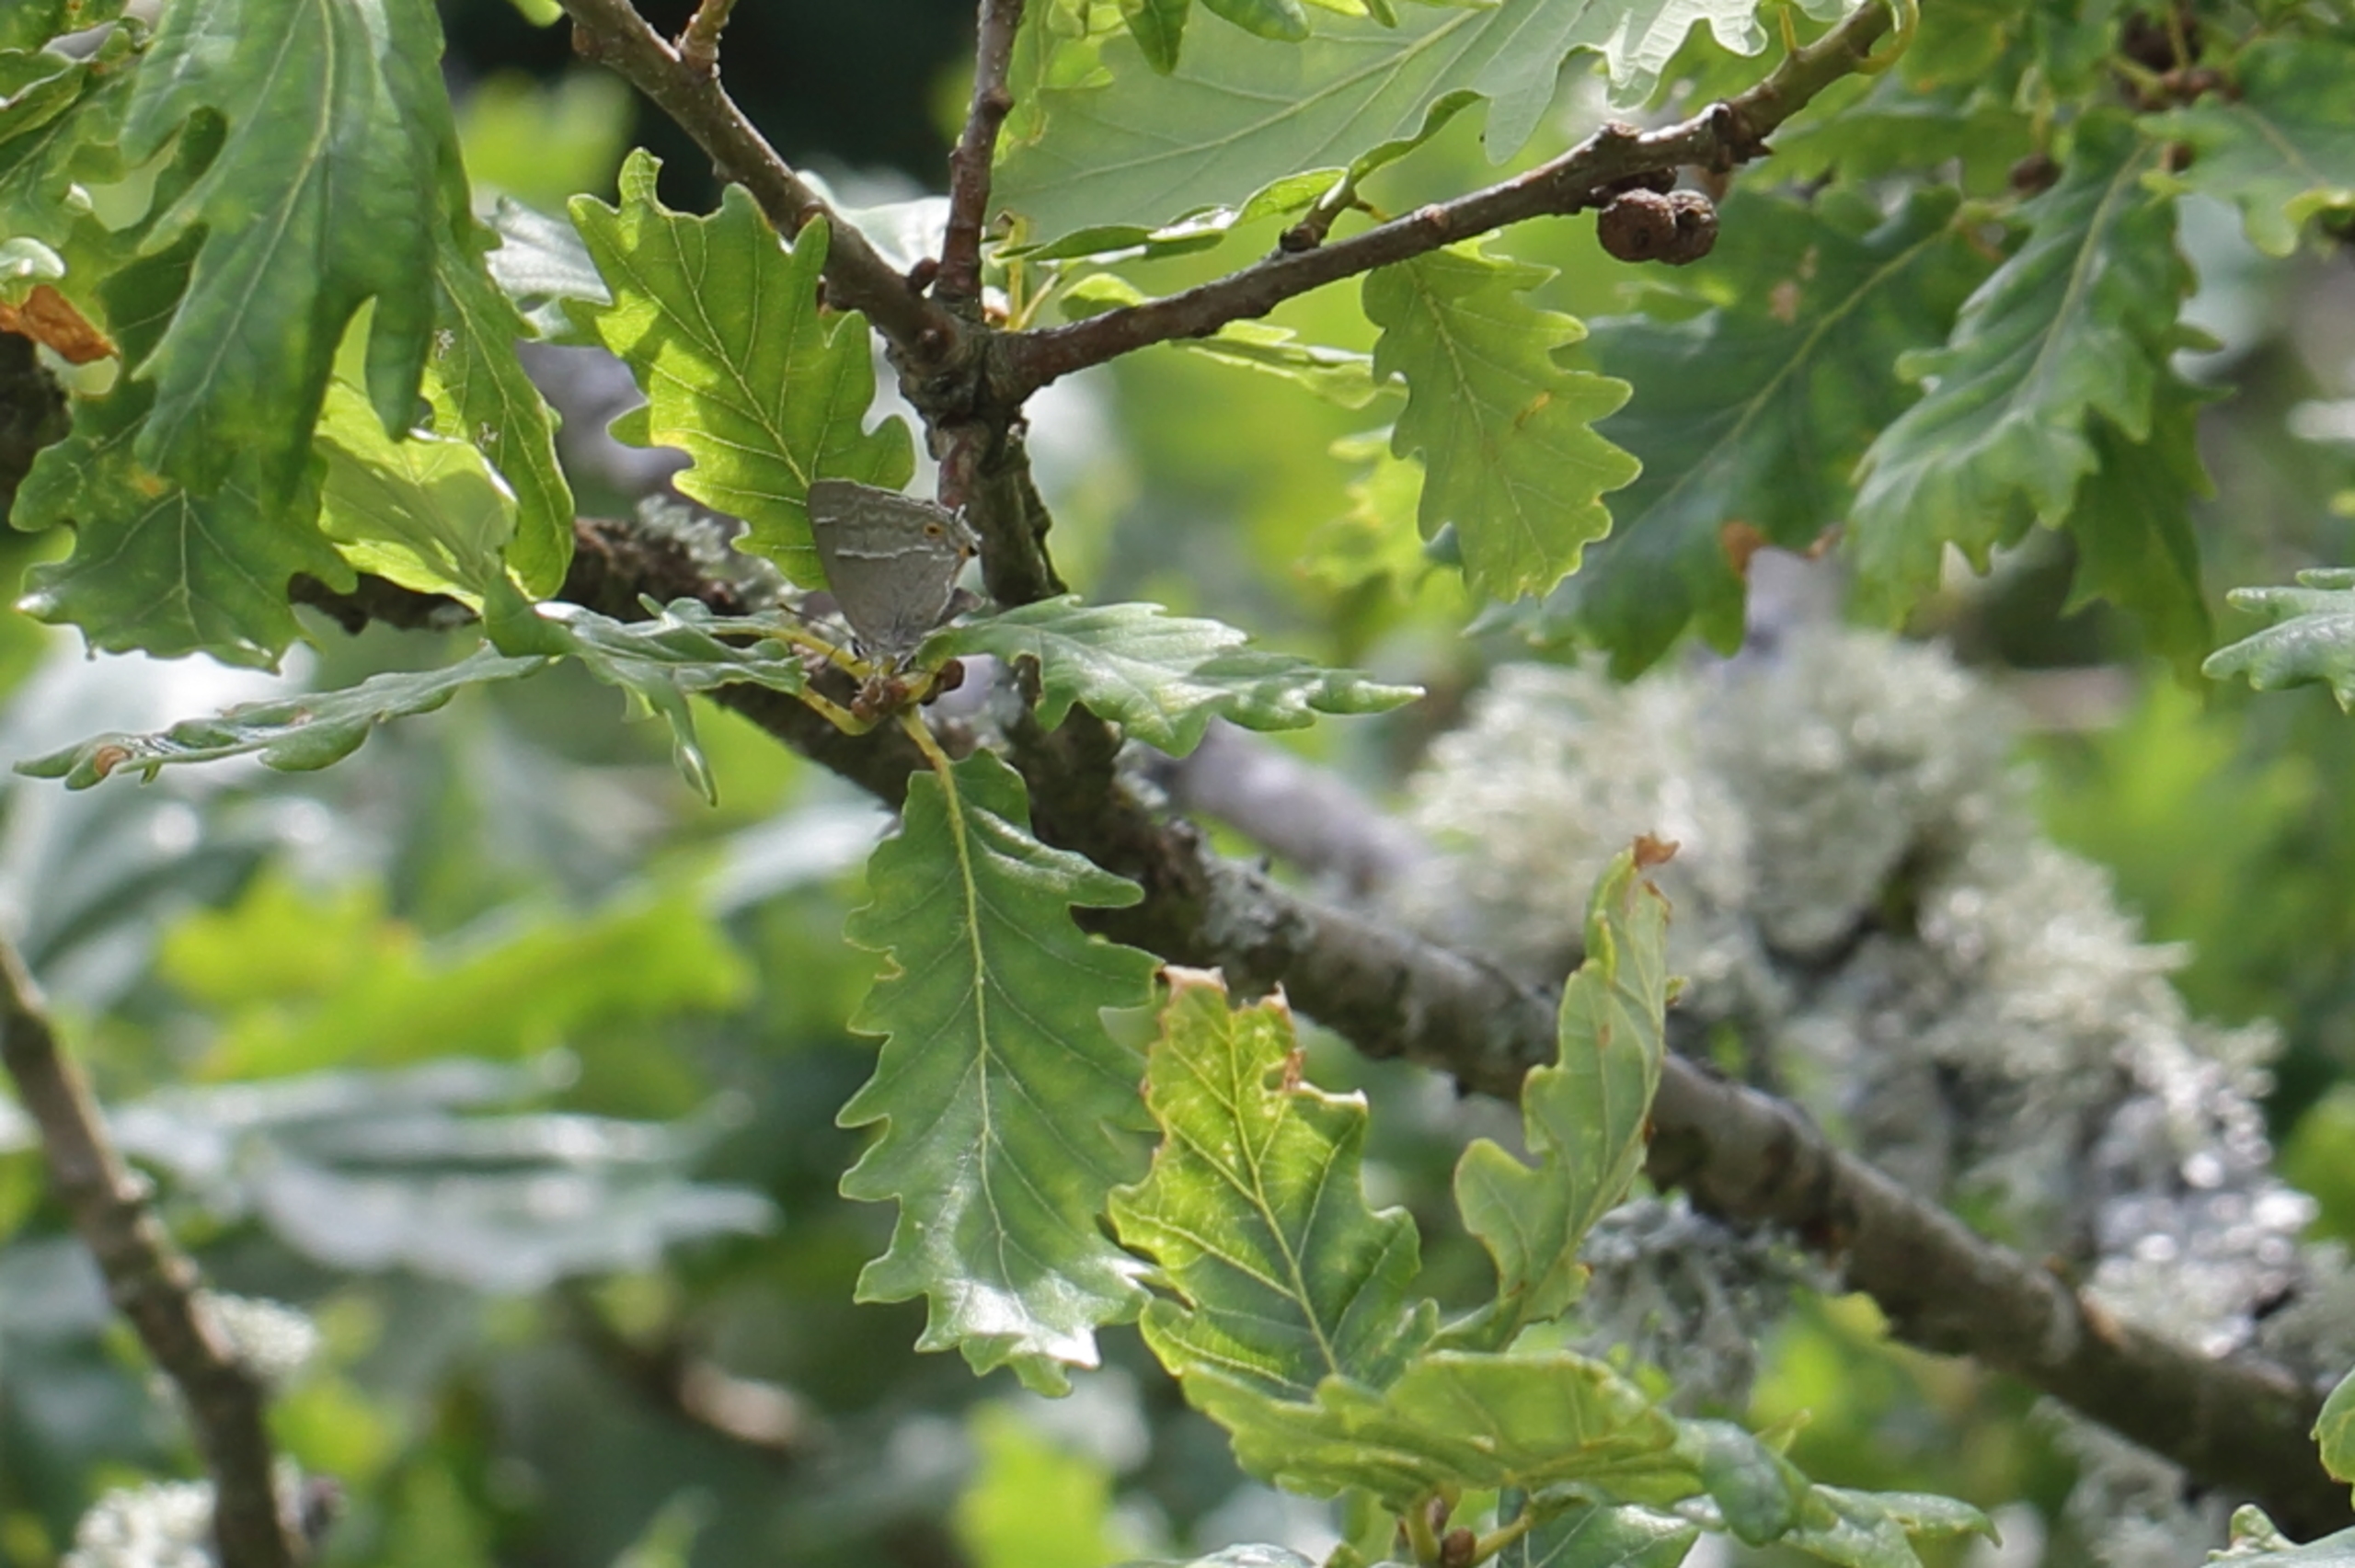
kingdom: Animalia
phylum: Arthropoda
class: Insecta
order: Lepidoptera
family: Lycaenidae
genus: Quercusia
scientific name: Quercusia quercus
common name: Blåhale
